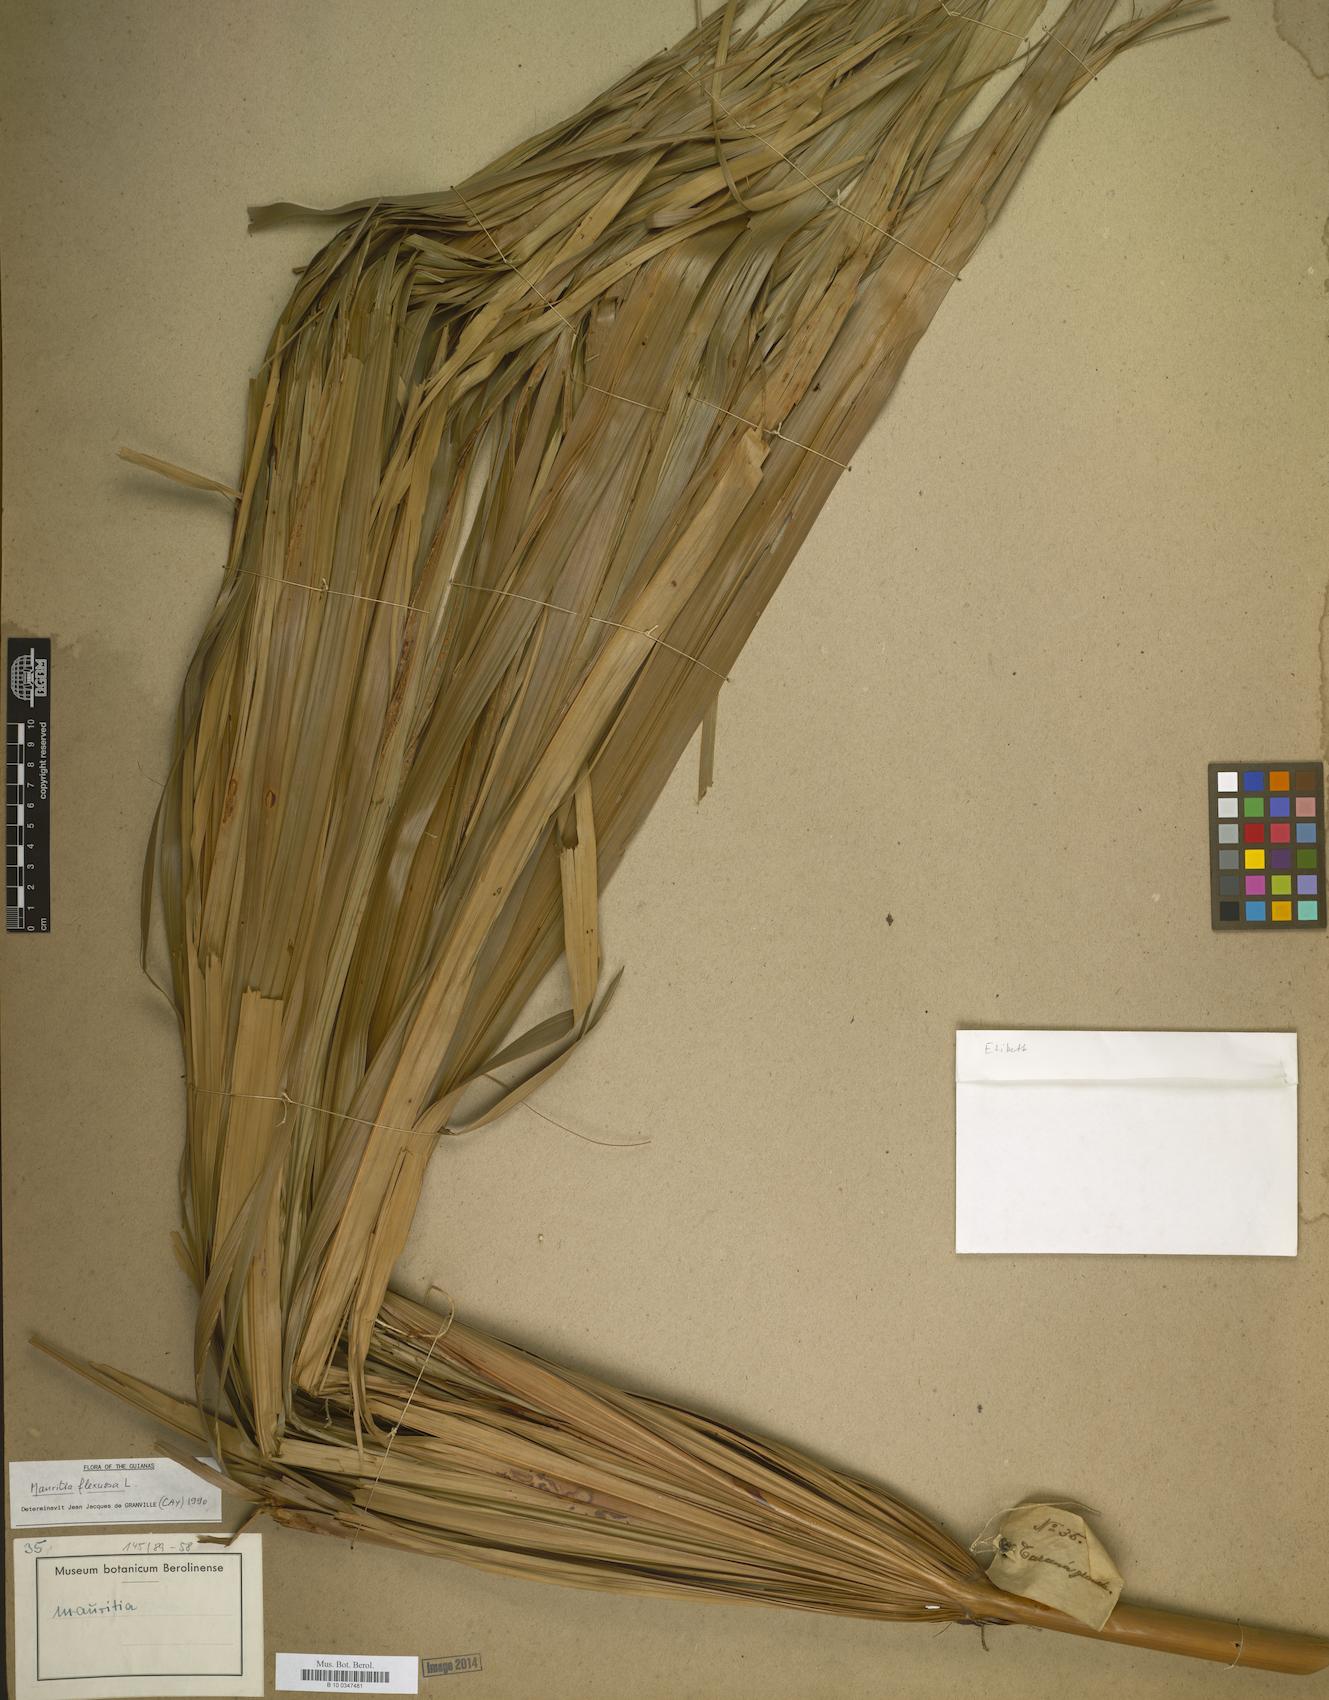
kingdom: Plantae
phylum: Tracheophyta
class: Liliopsida
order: Arecales
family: Arecaceae
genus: Mauritia
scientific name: Mauritia flexuosa
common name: Tree-of-life
